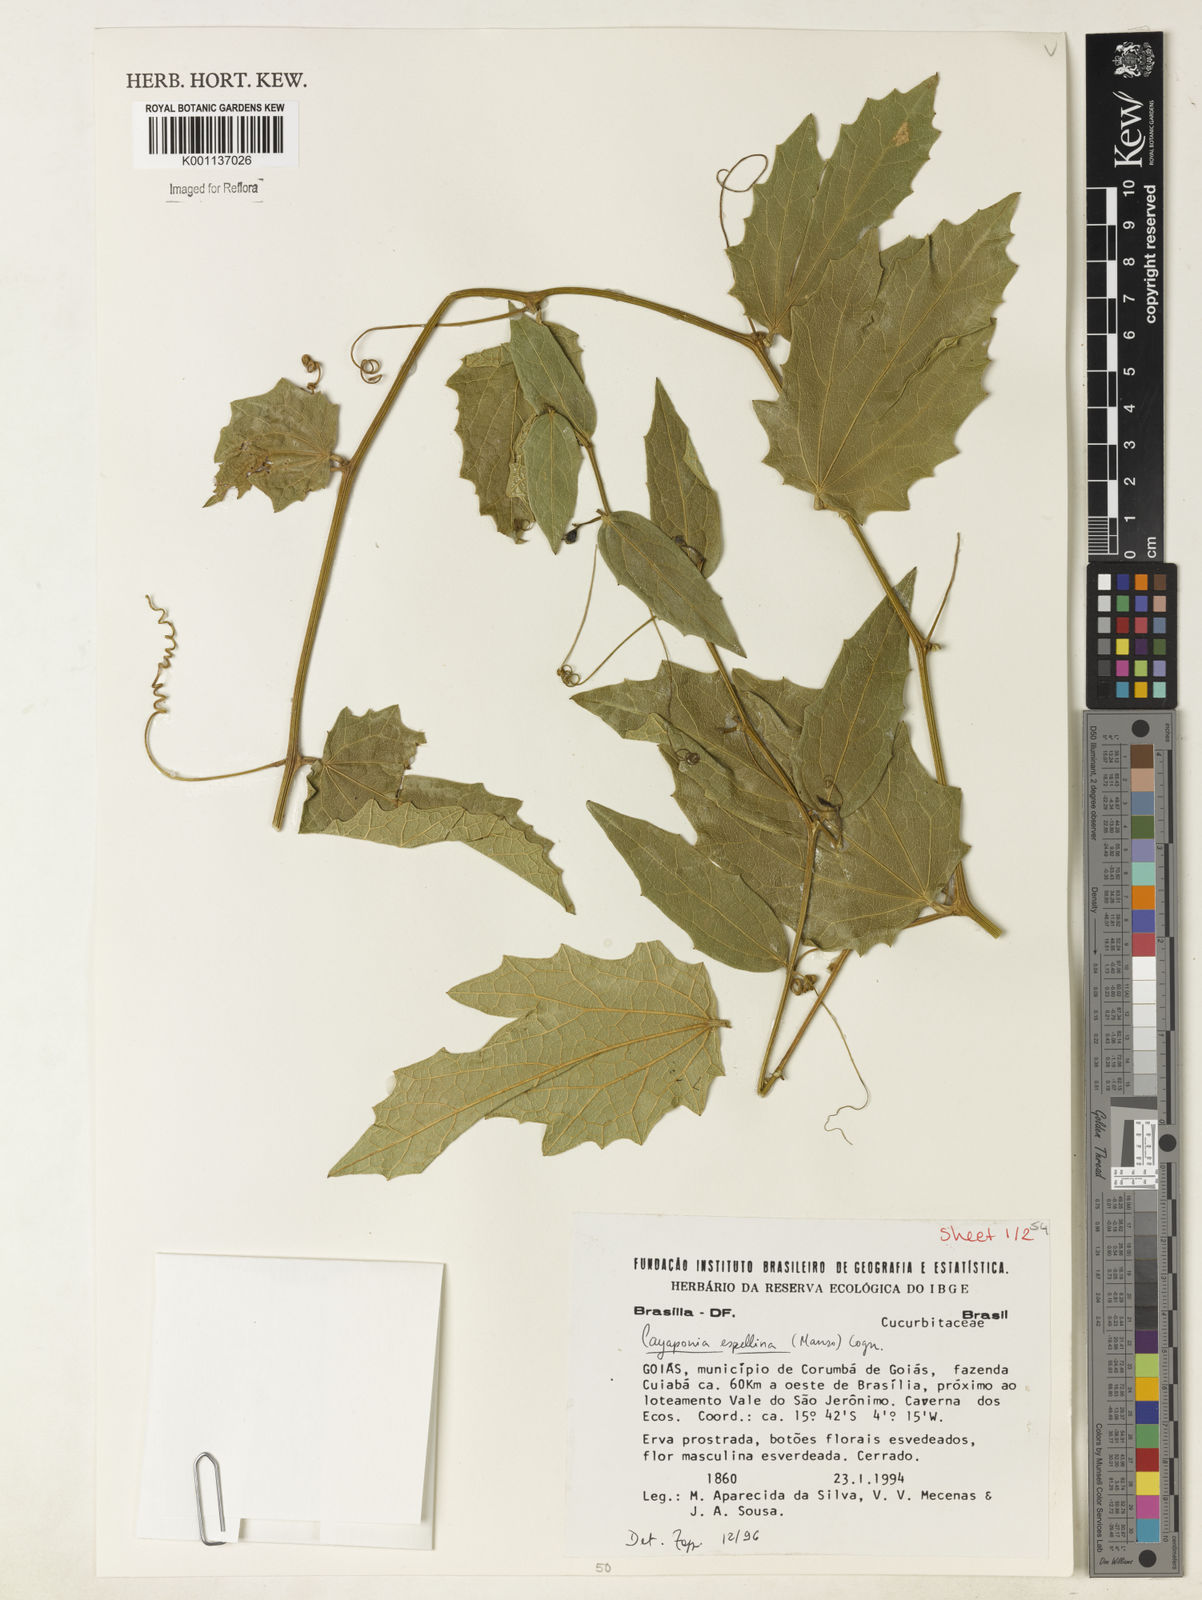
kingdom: Plantae
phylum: Tracheophyta
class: Magnoliopsida
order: Cucurbitales
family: Cucurbitaceae
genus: Cayaponia
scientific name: Cayaponia espelina
